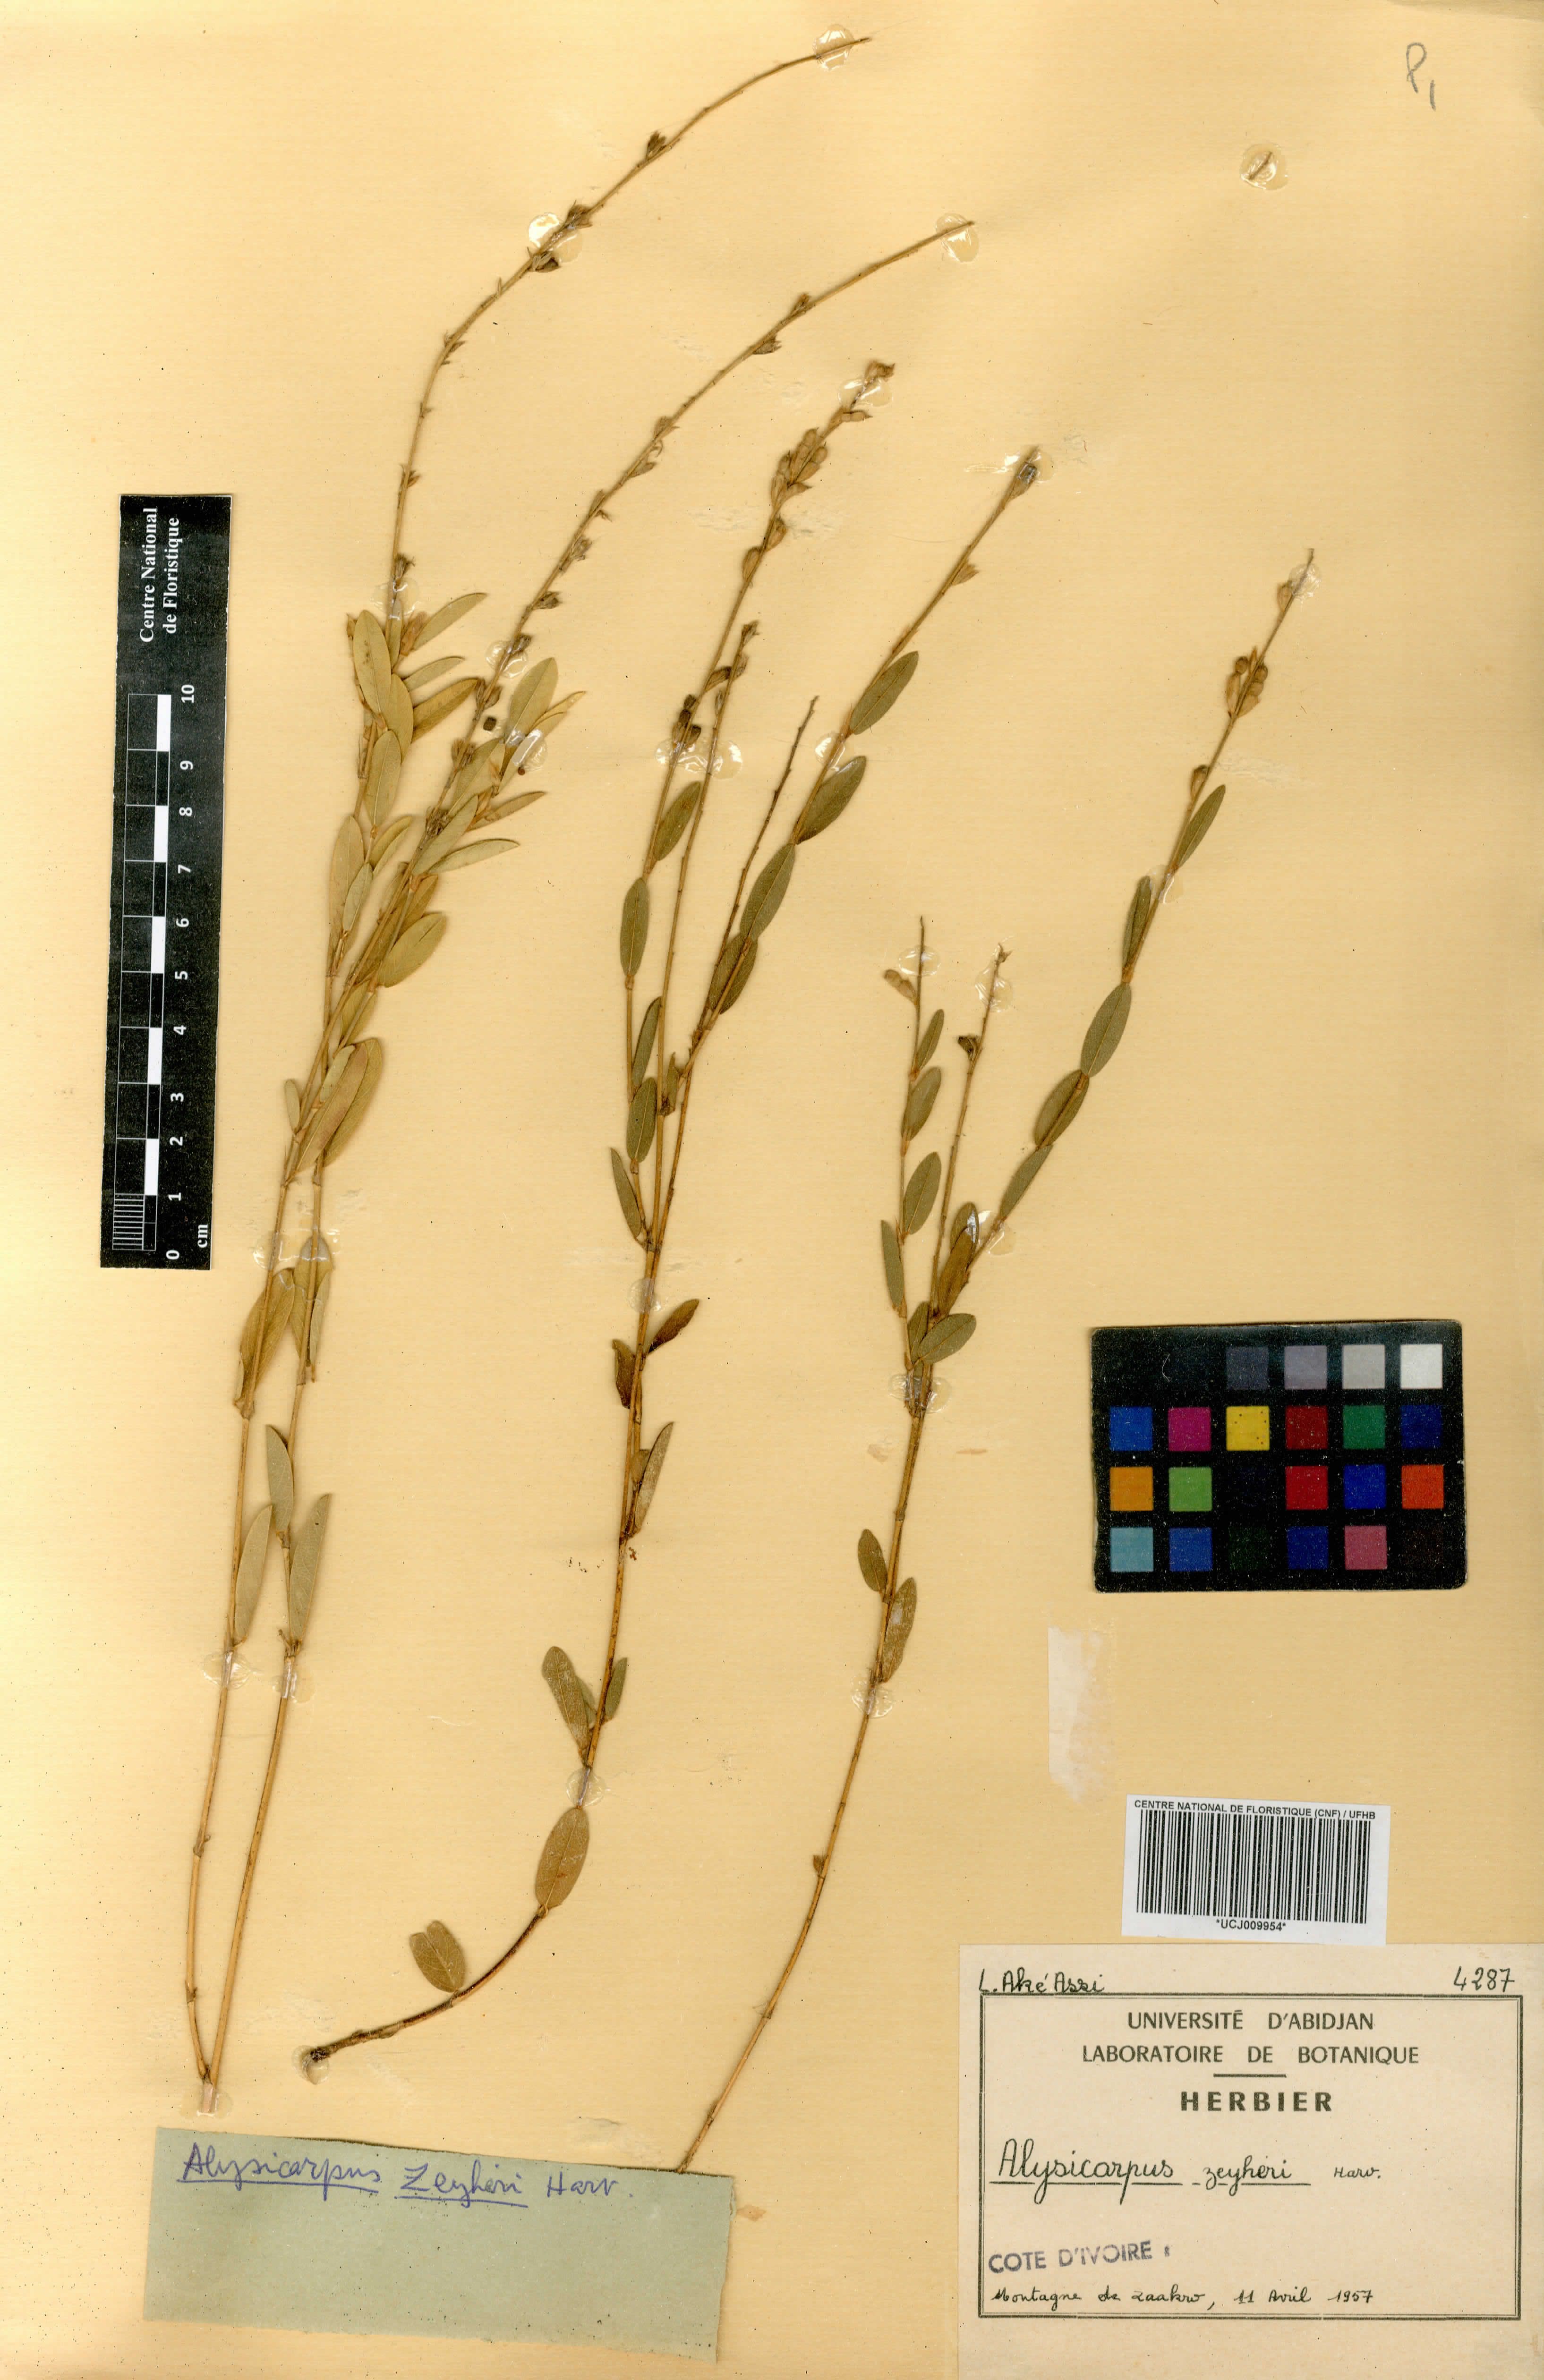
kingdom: Plantae
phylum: Tracheophyta
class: Magnoliopsida
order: Fabales
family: Fabaceae
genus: Alysicarpus
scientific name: Alysicarpus zeyheri
